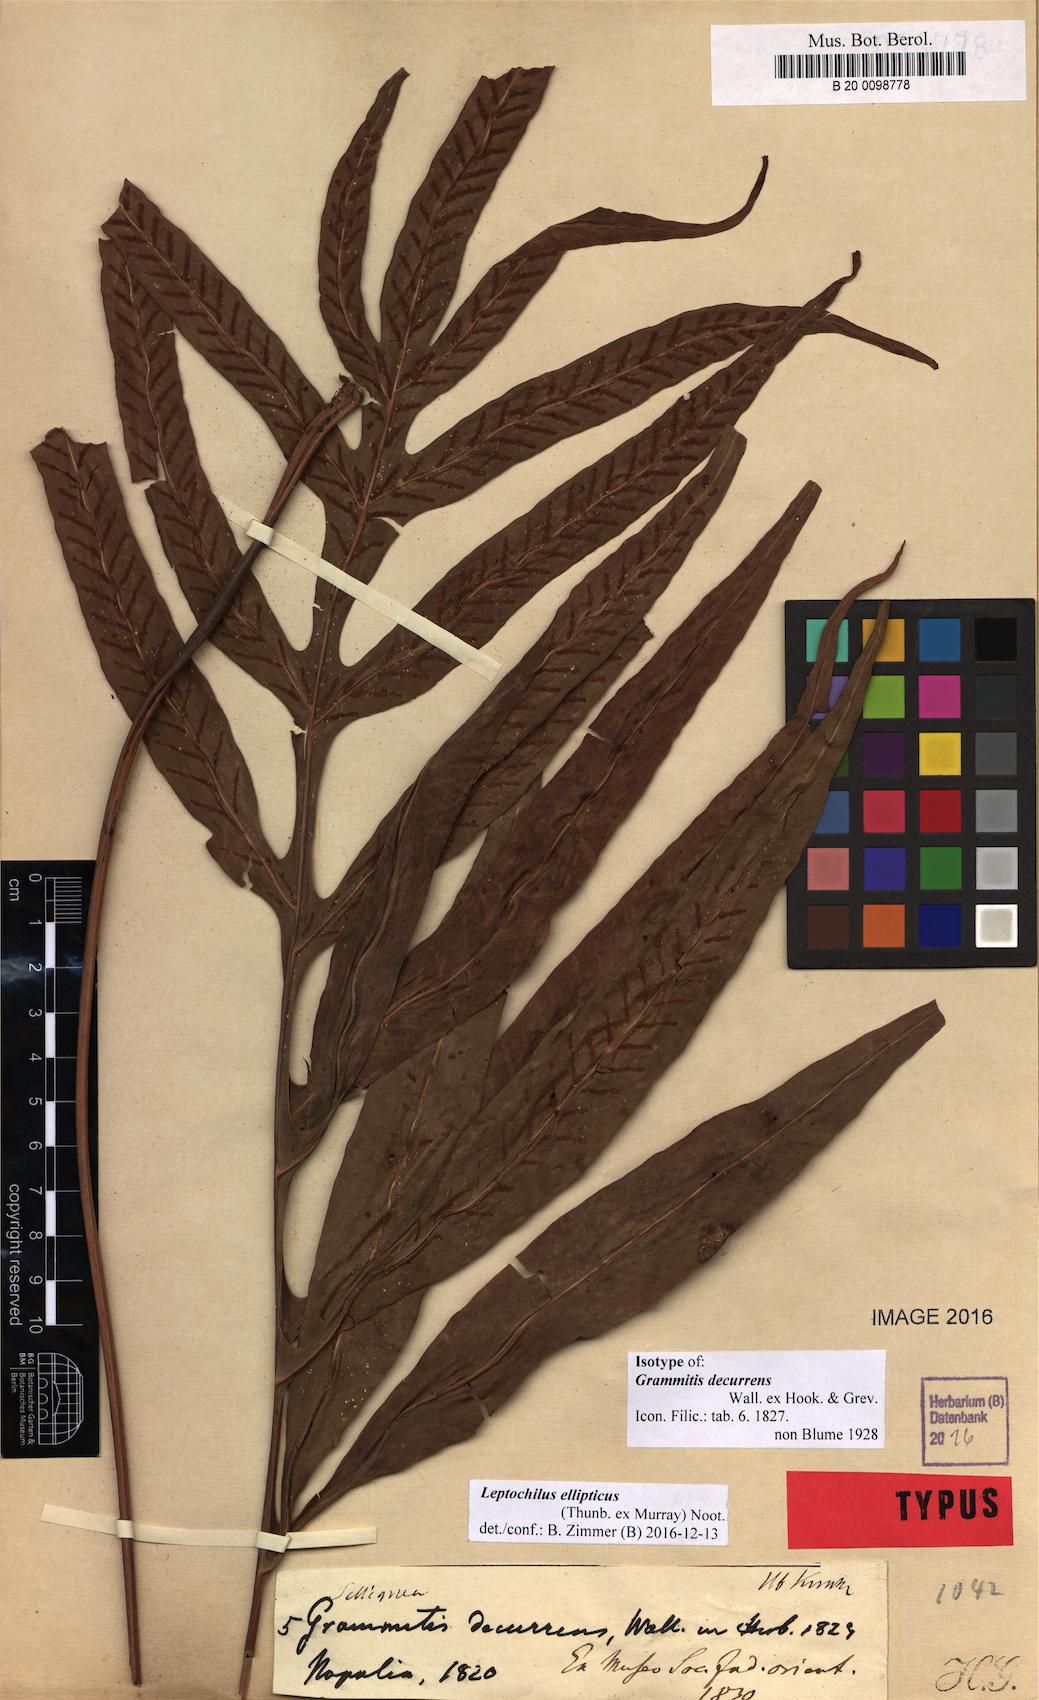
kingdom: Plantae
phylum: Tracheophyta
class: Polypodiopsida
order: Polypodiales
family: Polypodiaceae
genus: Leptochilus
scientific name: Leptochilus ellipticus
